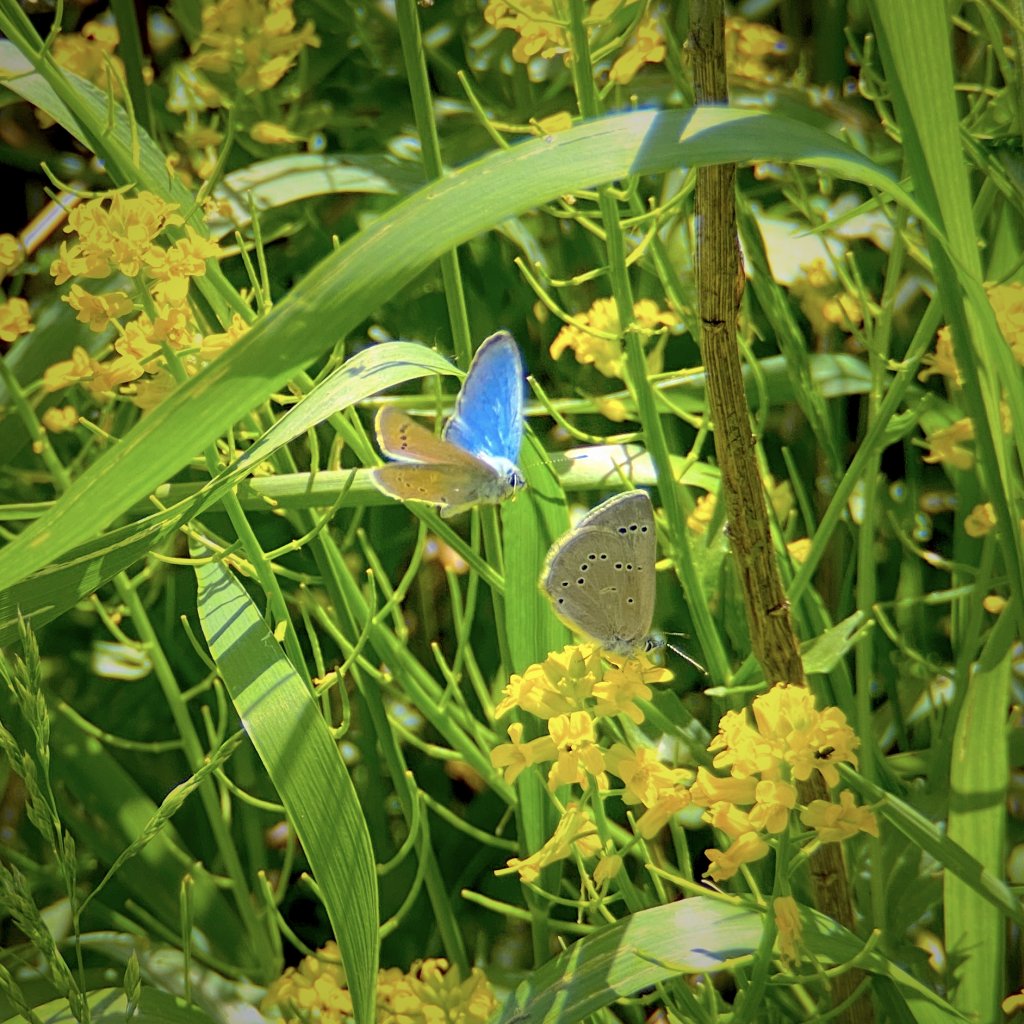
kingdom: Animalia
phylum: Arthropoda
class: Insecta
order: Lepidoptera
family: Lycaenidae
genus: Glaucopsyche
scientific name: Glaucopsyche lygdamus
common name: Silvery Blue
